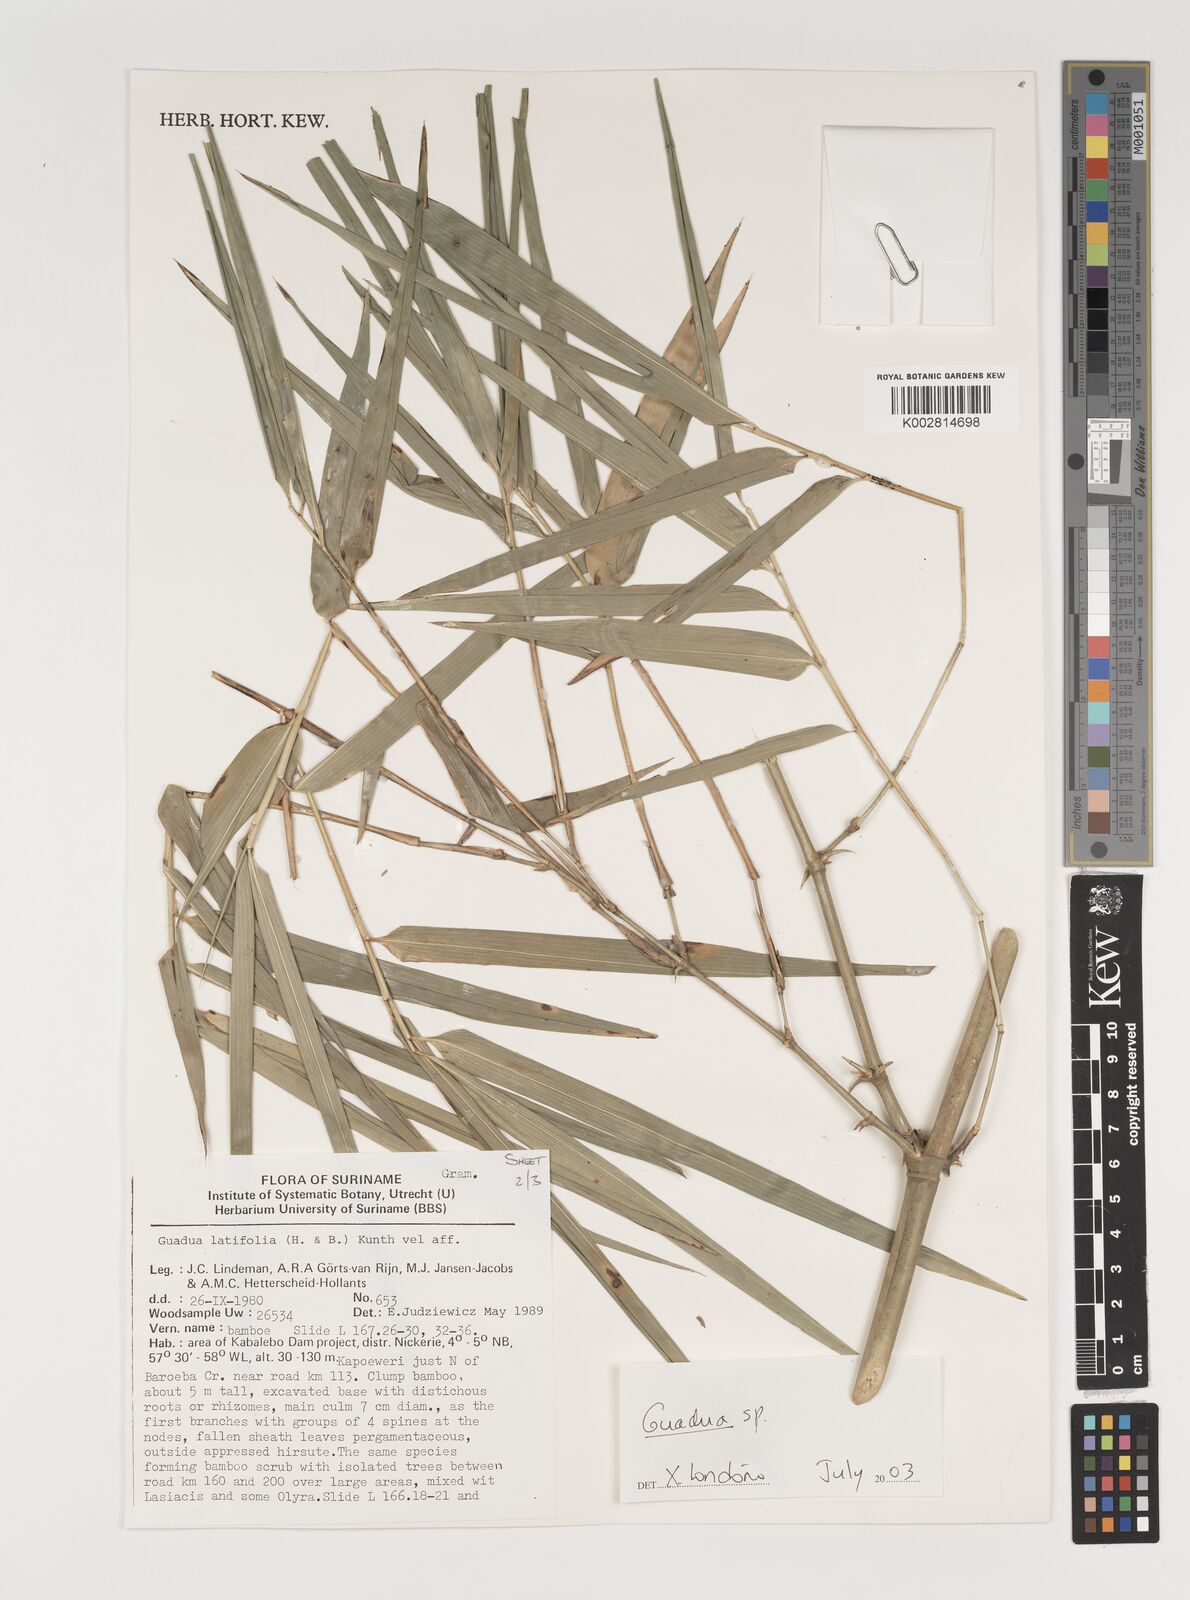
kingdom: Plantae
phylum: Tracheophyta
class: Liliopsida
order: Poales
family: Poaceae
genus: Guadua
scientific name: Guadua
